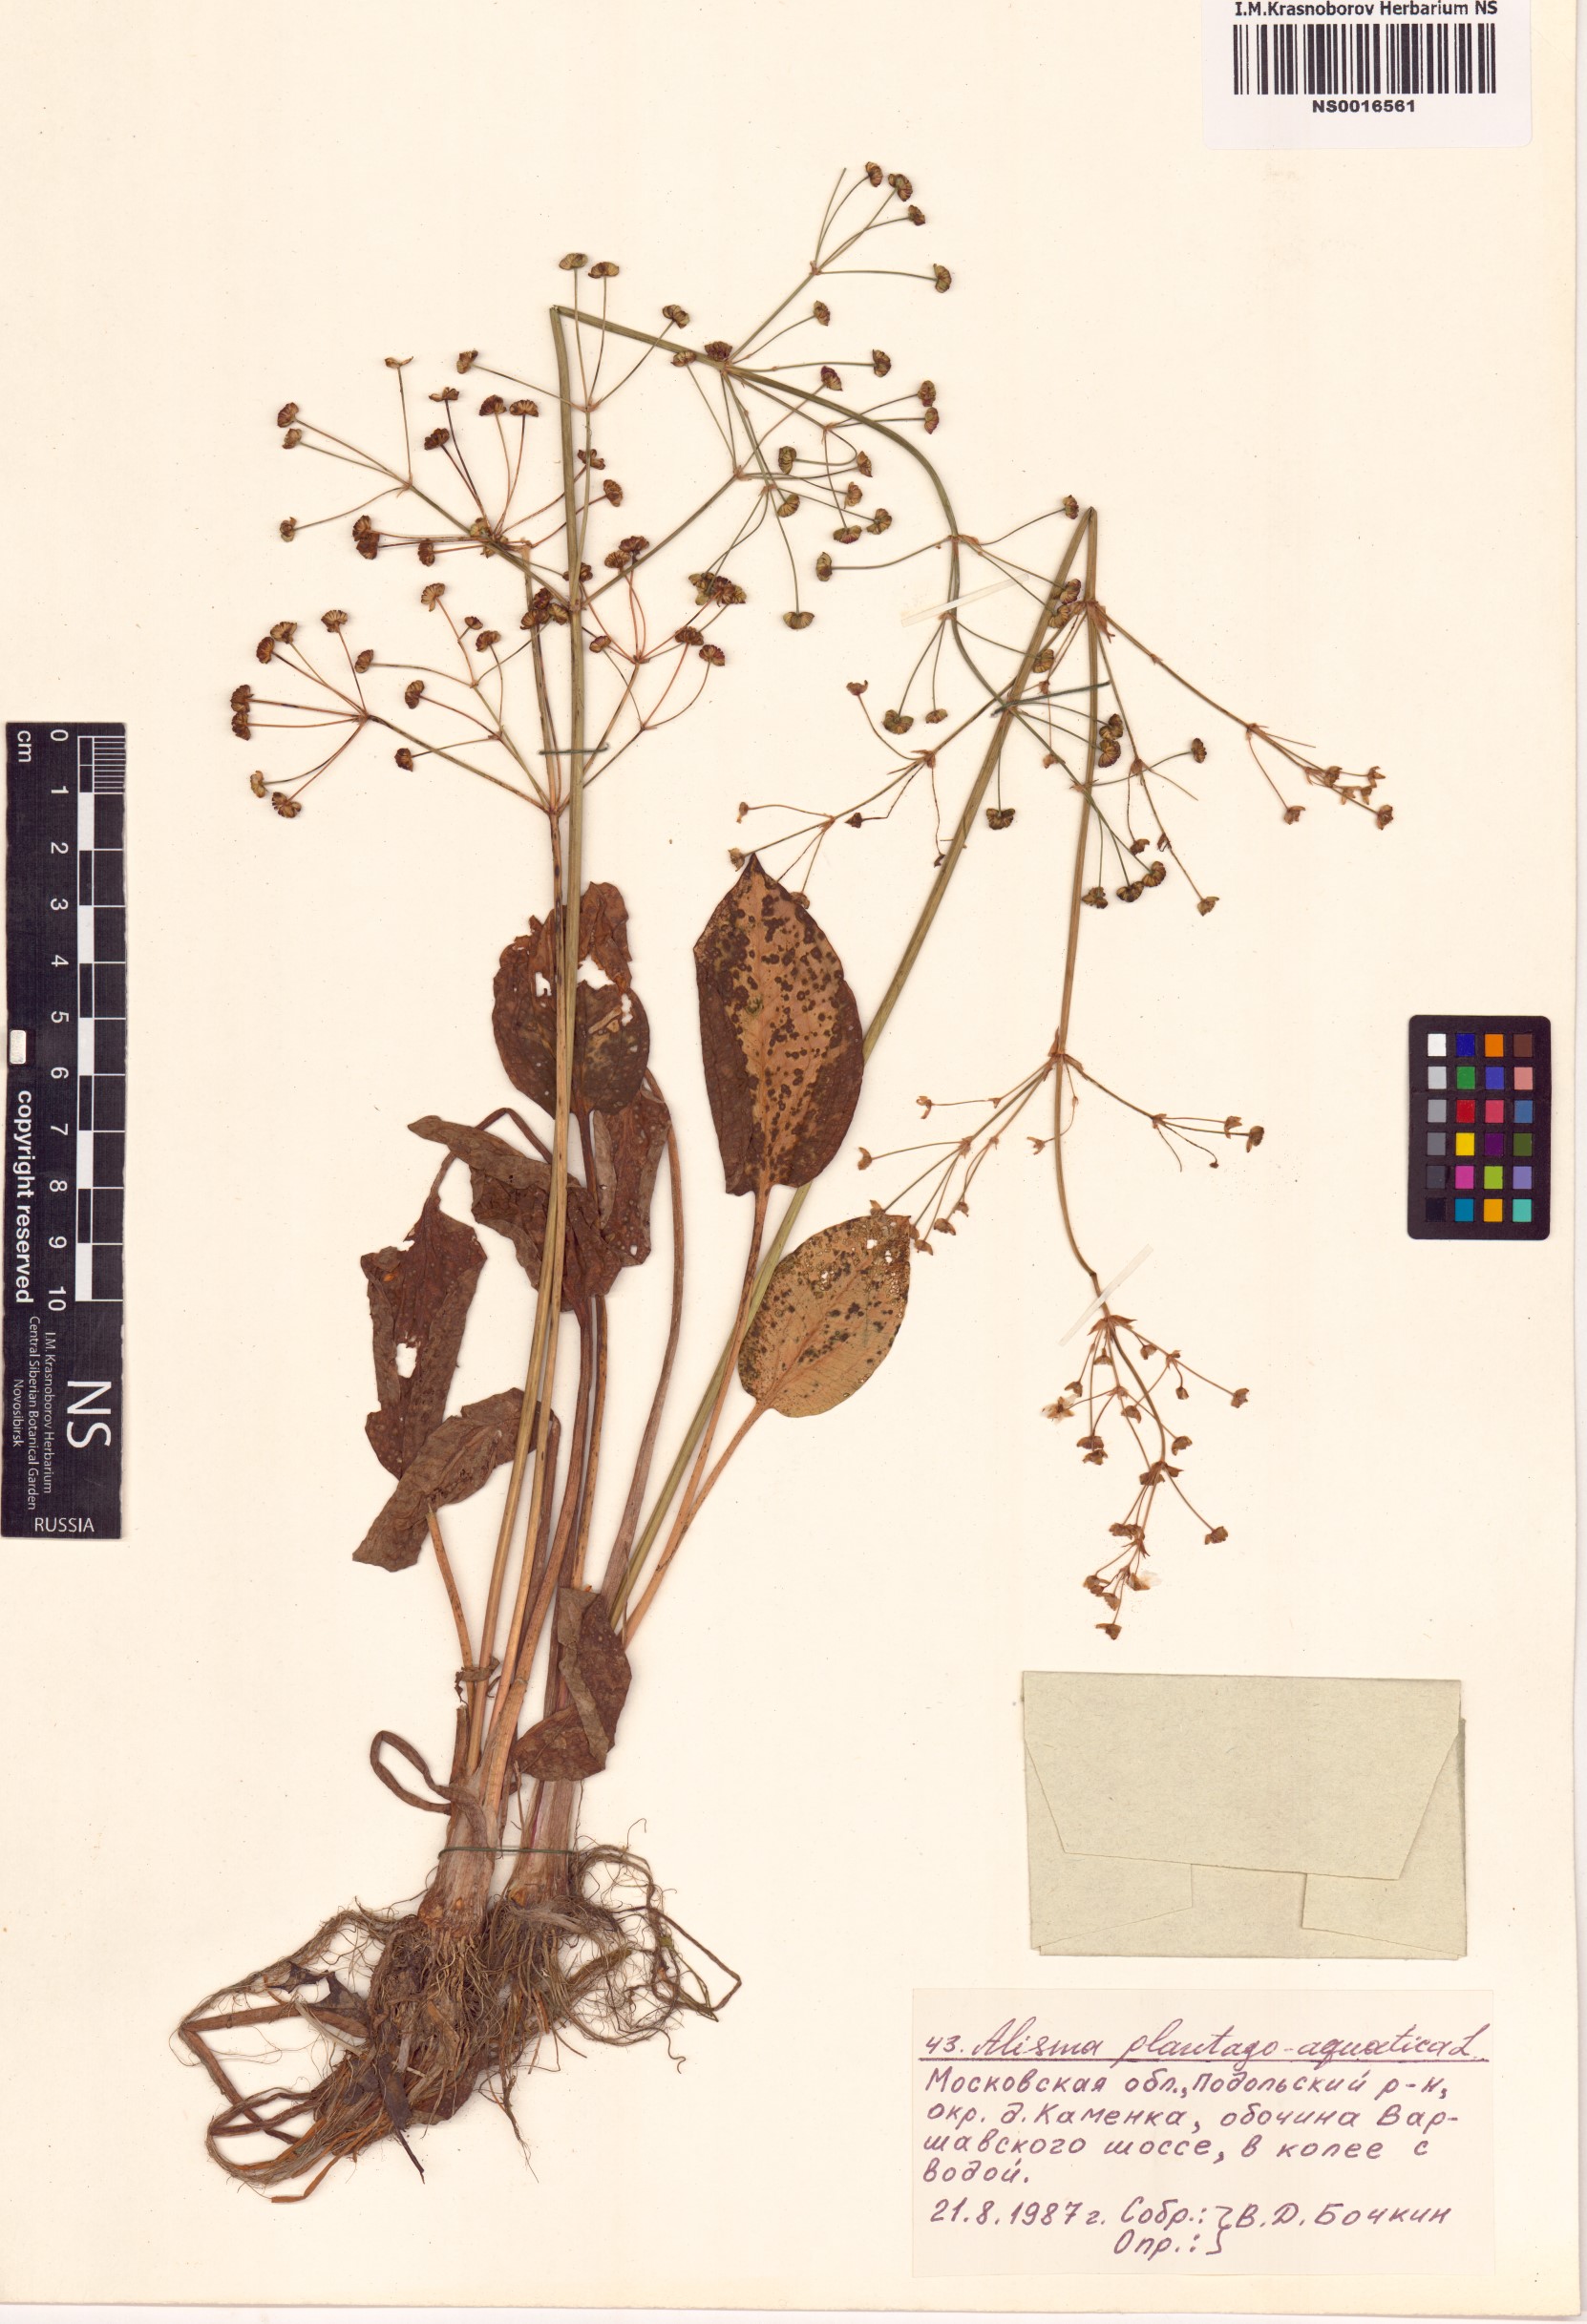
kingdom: Plantae
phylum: Tracheophyta
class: Liliopsida
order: Alismatales
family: Alismataceae
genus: Alisma
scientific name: Alisma plantago-aquatica
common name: Water-plantain
